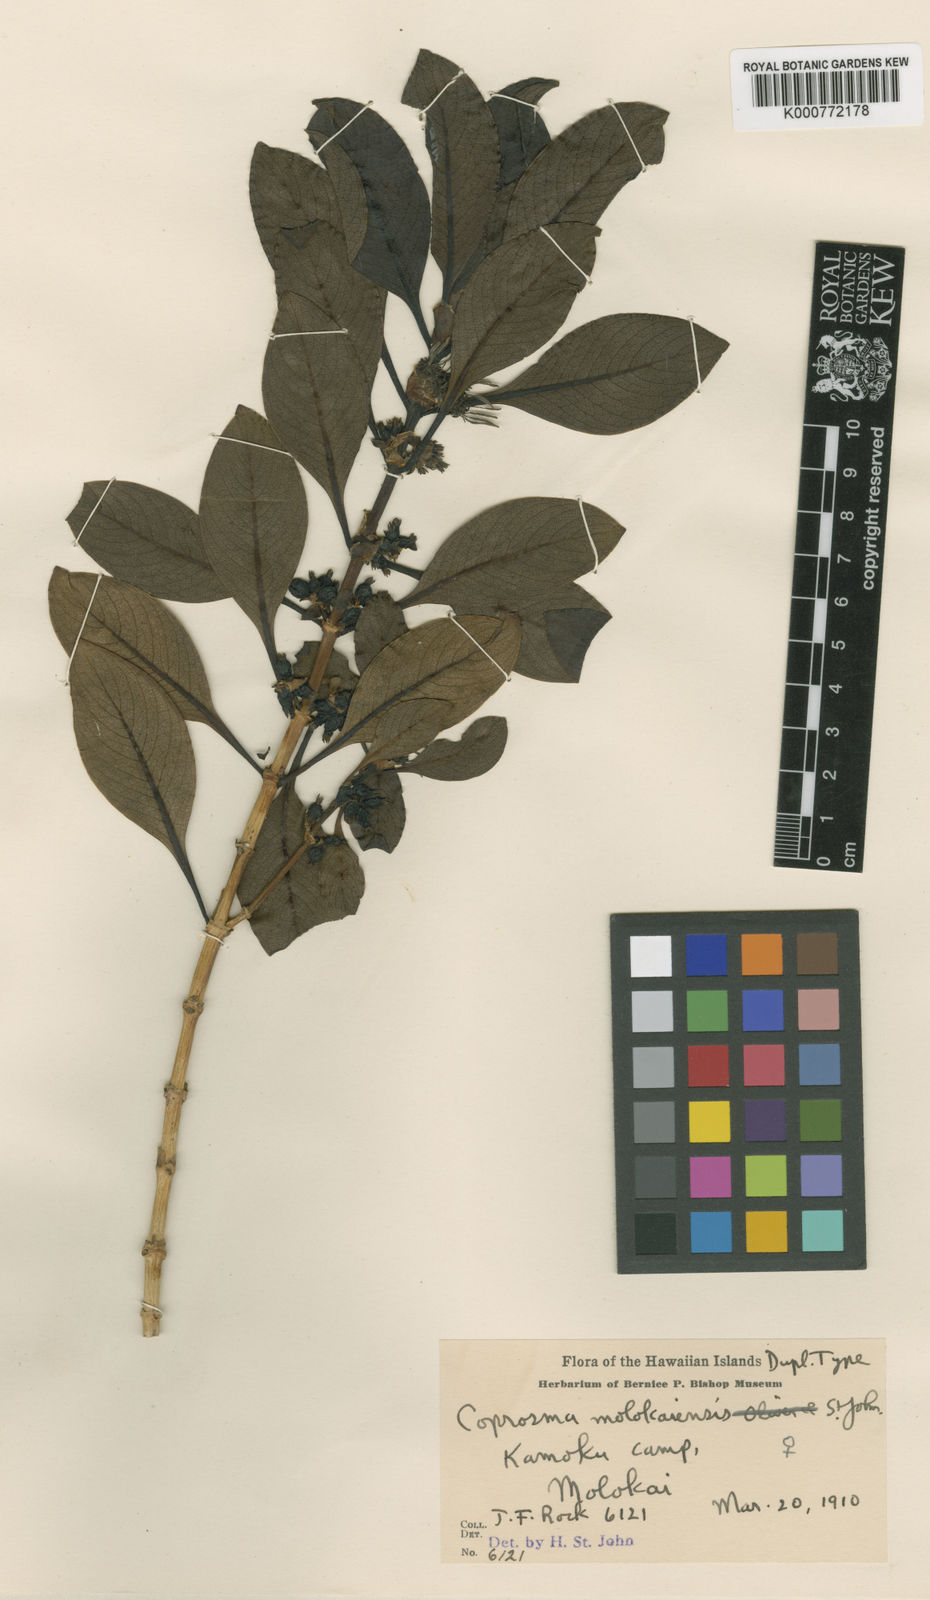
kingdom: Plantae
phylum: Tracheophyta
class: Magnoliopsida
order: Gentianales
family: Rubiaceae
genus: Coprosma
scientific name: Coprosma molokaiensis
